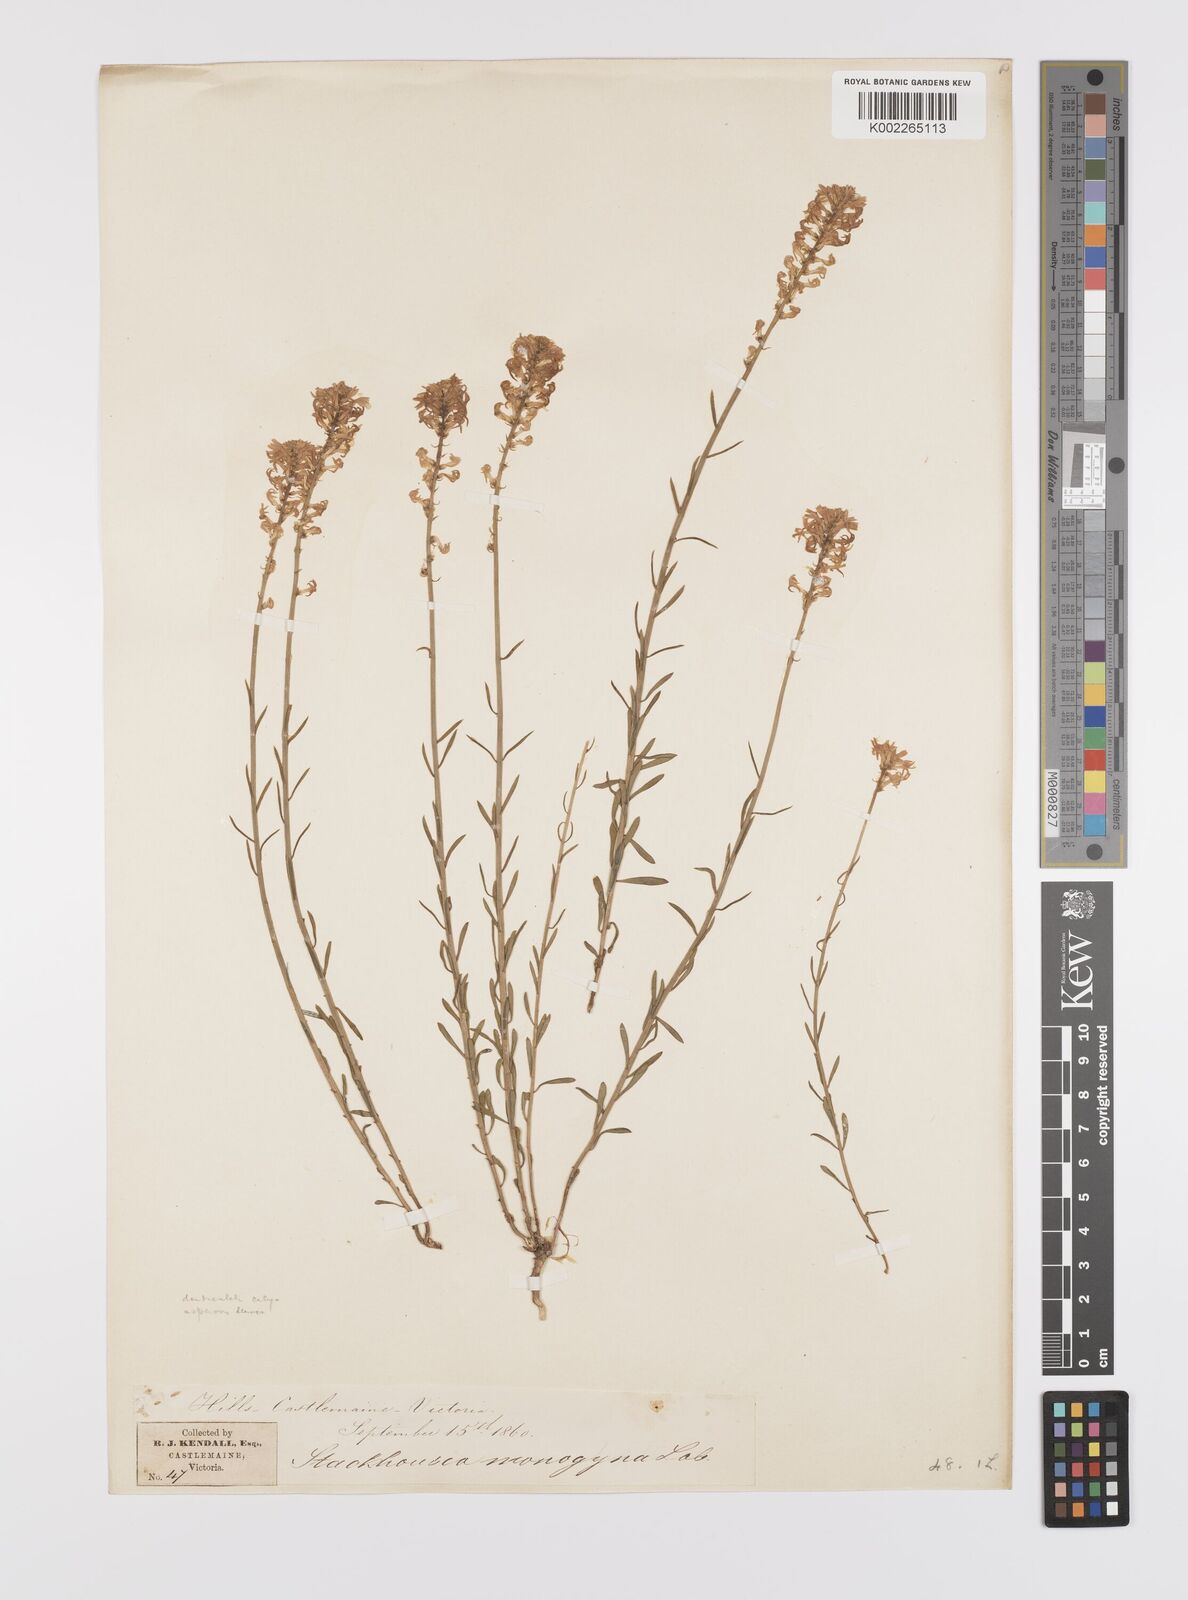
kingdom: Plantae
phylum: Tracheophyta
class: Magnoliopsida
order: Celastrales
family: Celastraceae
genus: Stackhousia
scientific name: Stackhousia monogyna
